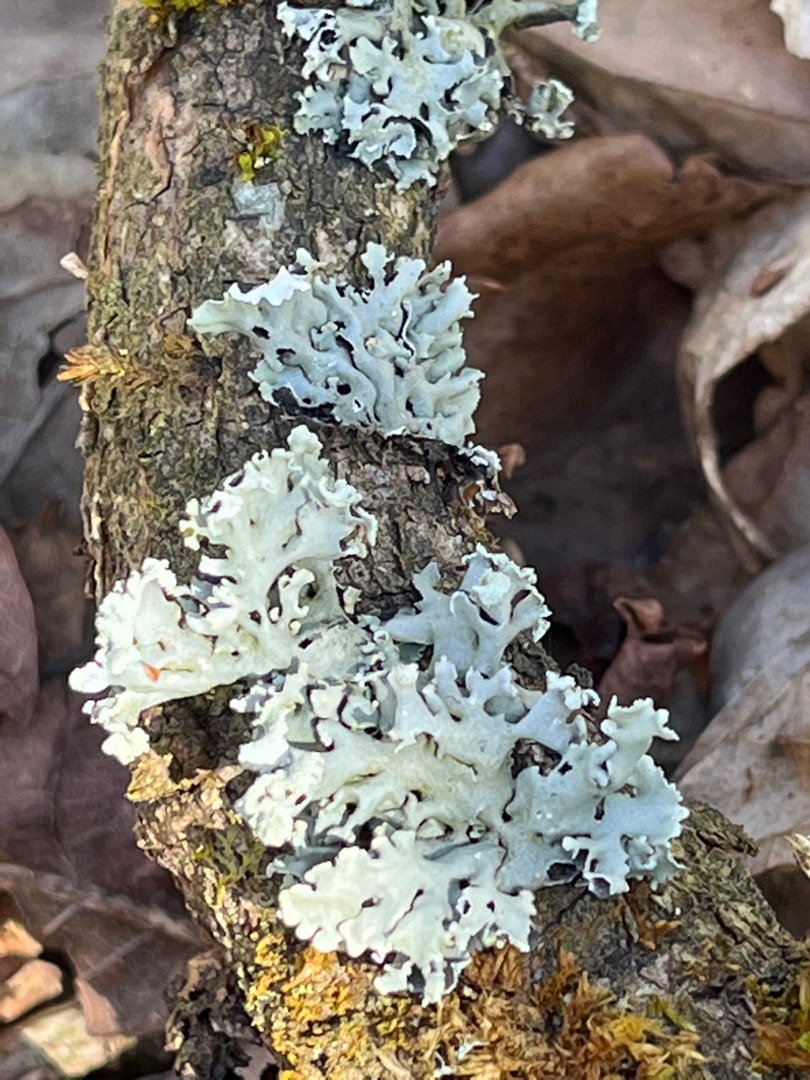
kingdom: Fungi
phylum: Ascomycota
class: Lecanoromycetes
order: Lecanorales
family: Parmeliaceae
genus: Hypogymnia
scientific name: Hypogymnia physodes
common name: Almindelig kvistlav
